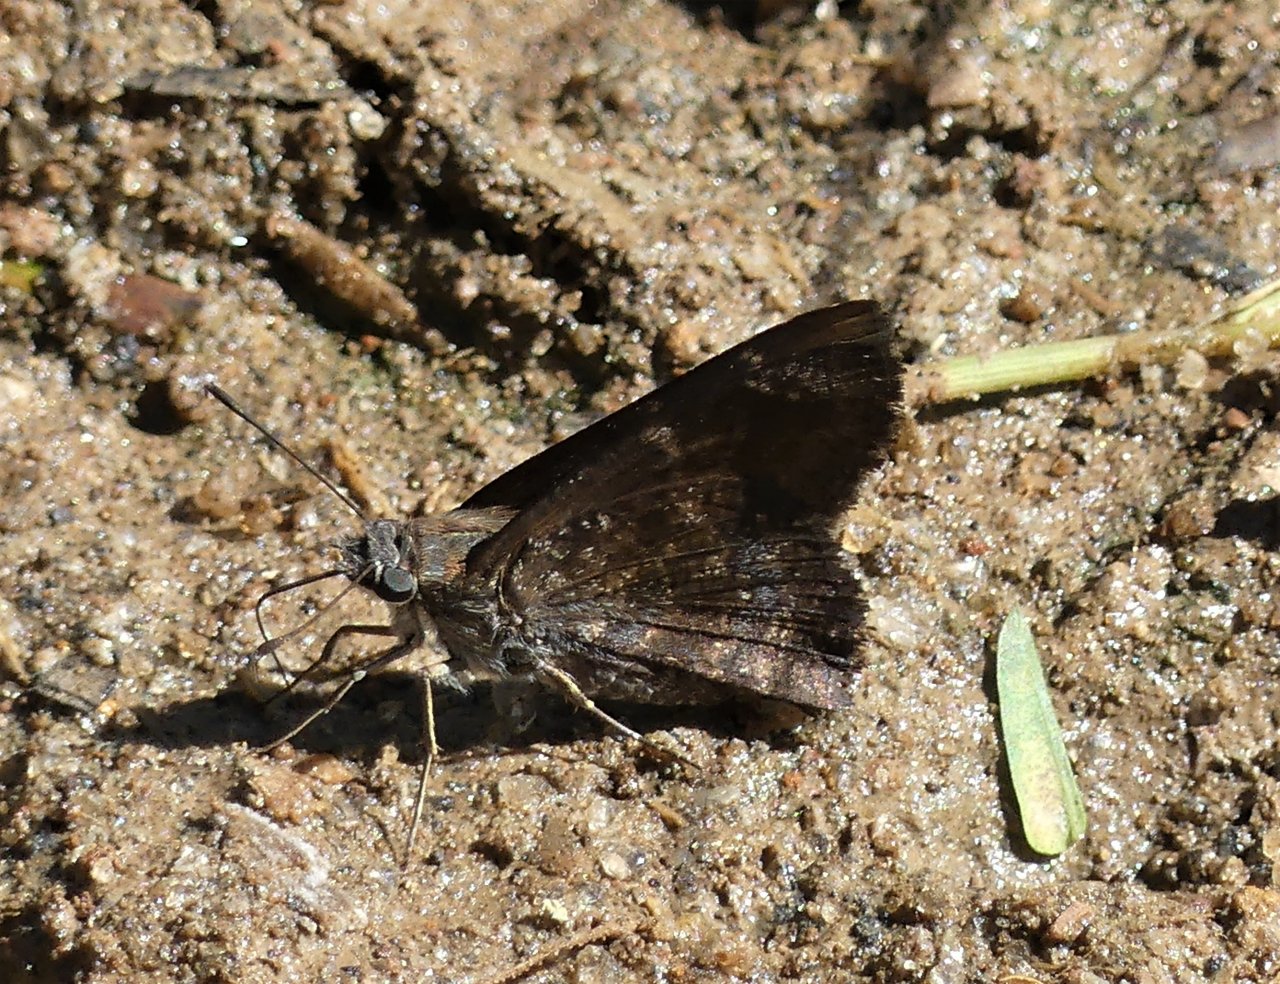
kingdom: Animalia
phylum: Arthropoda
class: Insecta
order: Lepidoptera
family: Hesperiidae
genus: Caicella
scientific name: Caicella calchas
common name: Mimosa Skipper
